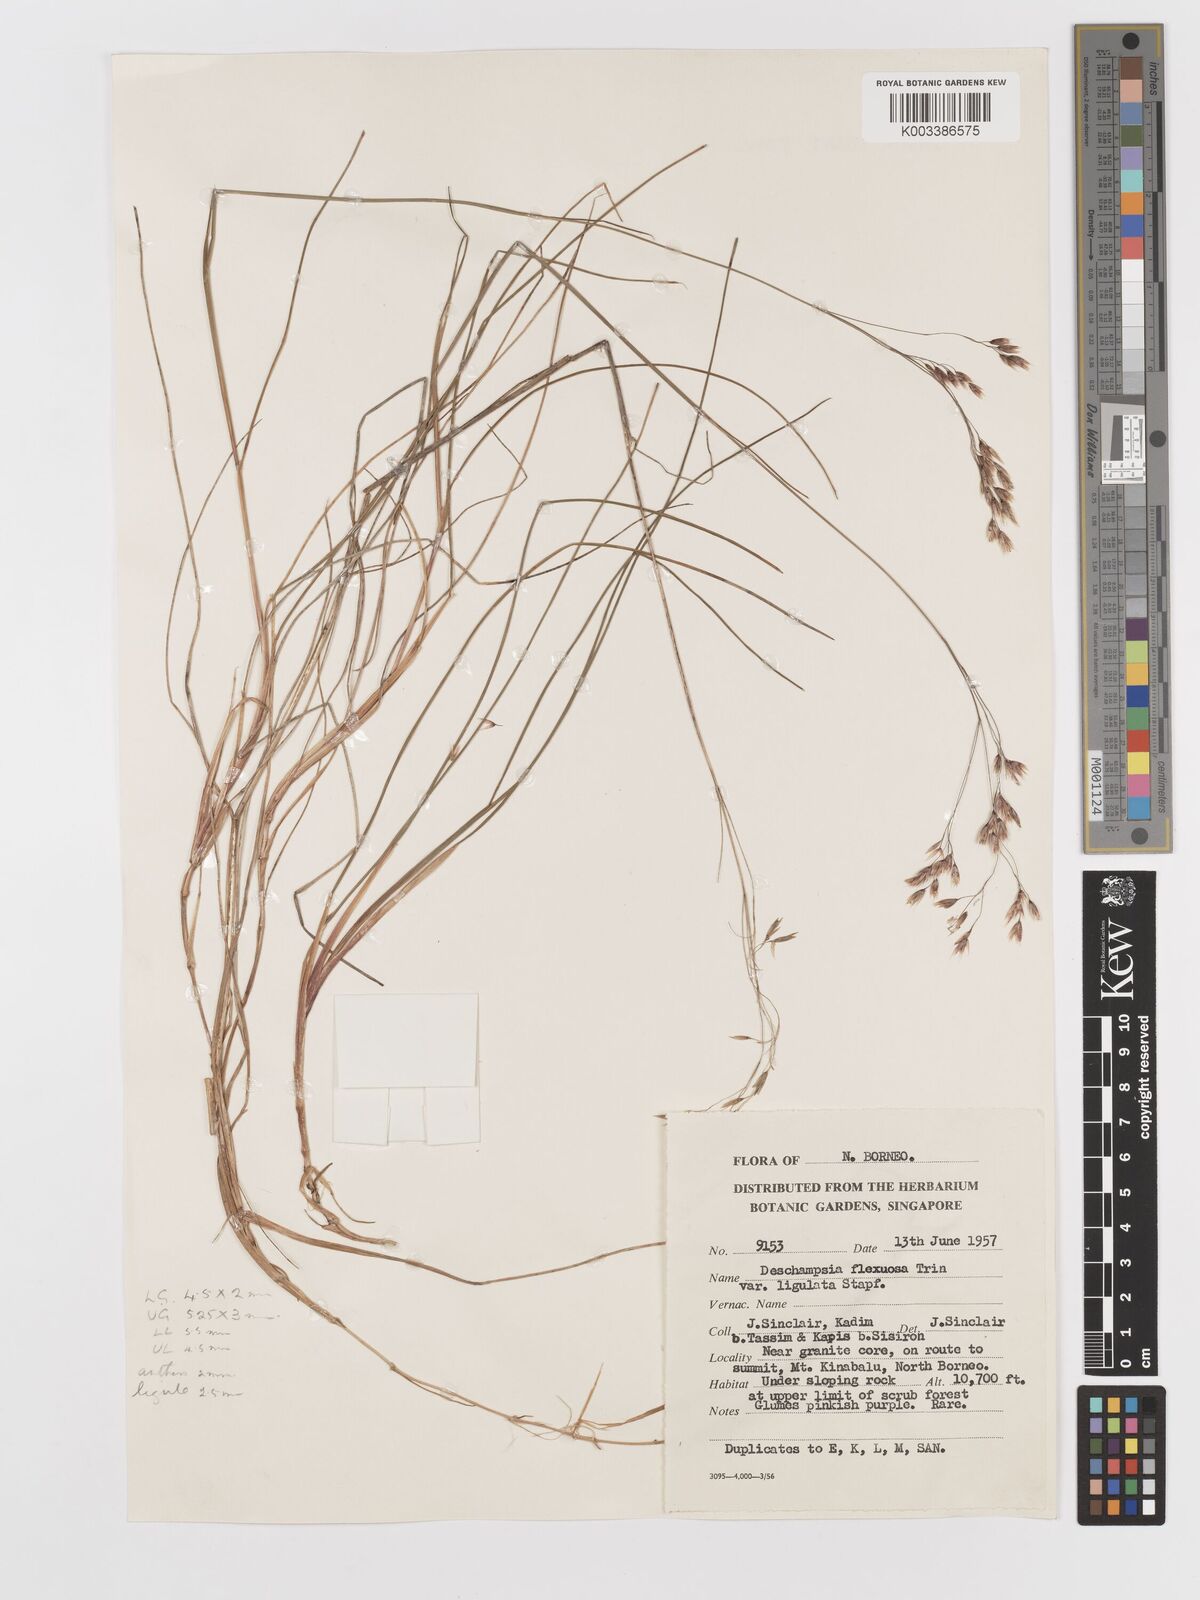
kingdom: Plantae
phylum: Tracheophyta
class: Liliopsida
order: Poales
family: Poaceae
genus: Avenella
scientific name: Avenella flexuosa
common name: Wavy hairgrass
